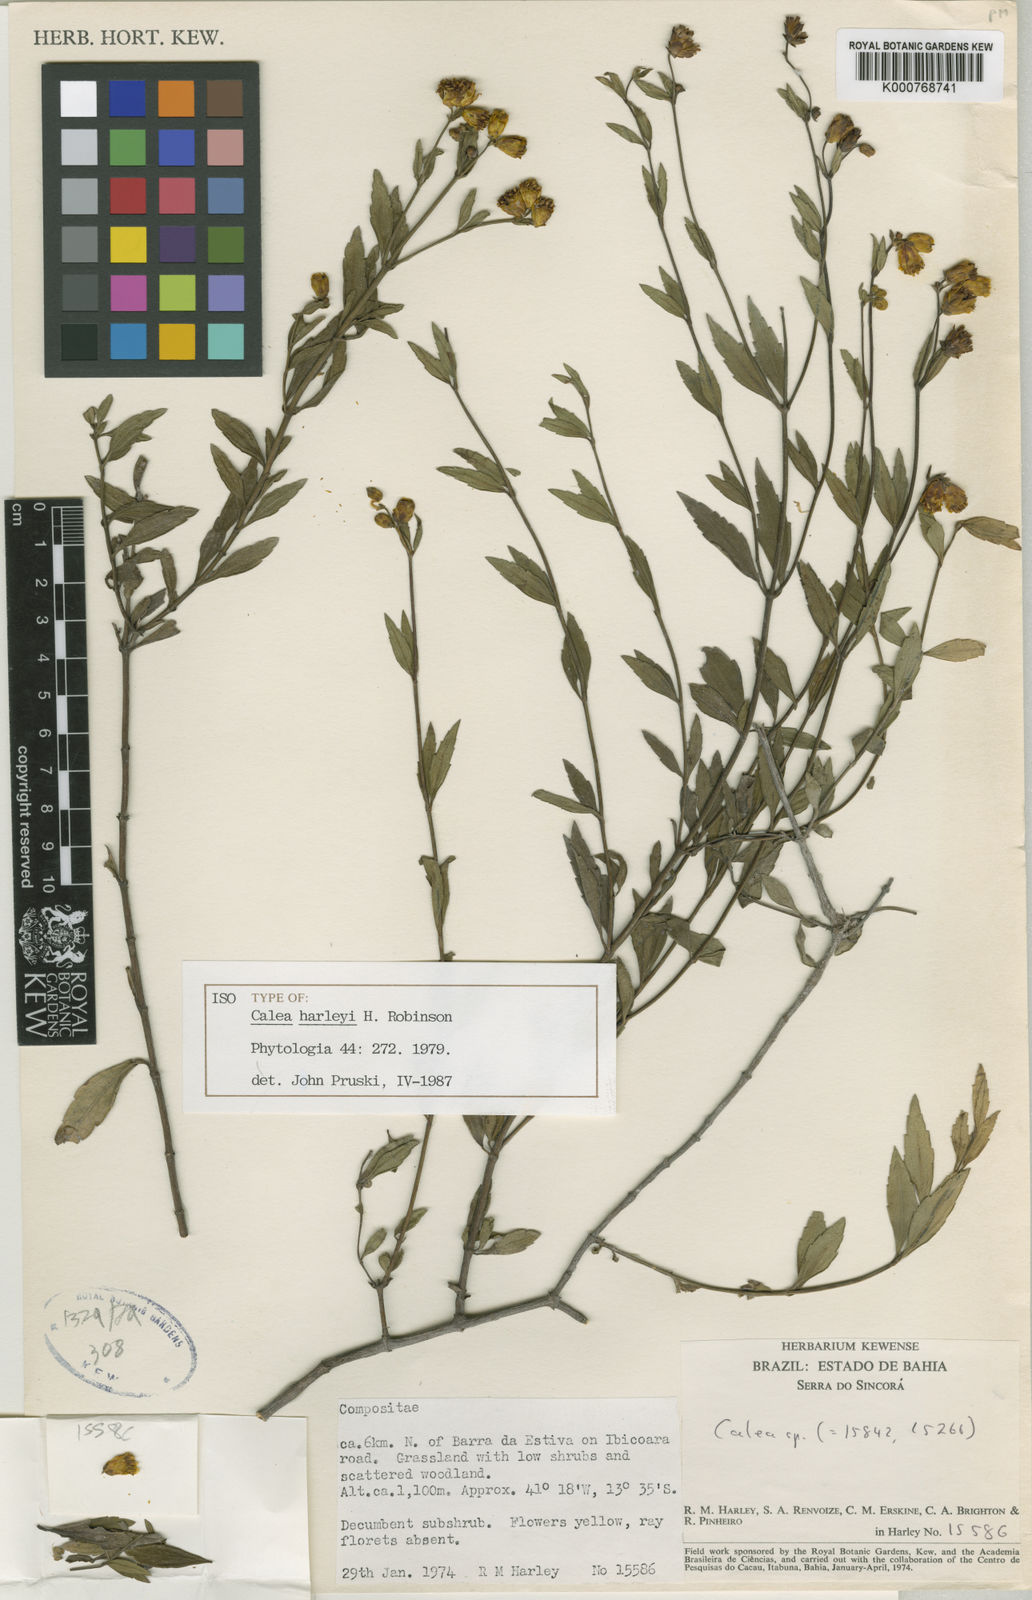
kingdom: Plantae
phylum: Tracheophyta
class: Magnoliopsida
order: Asterales
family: Asteraceae
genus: Calea
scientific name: Calea harleyi
